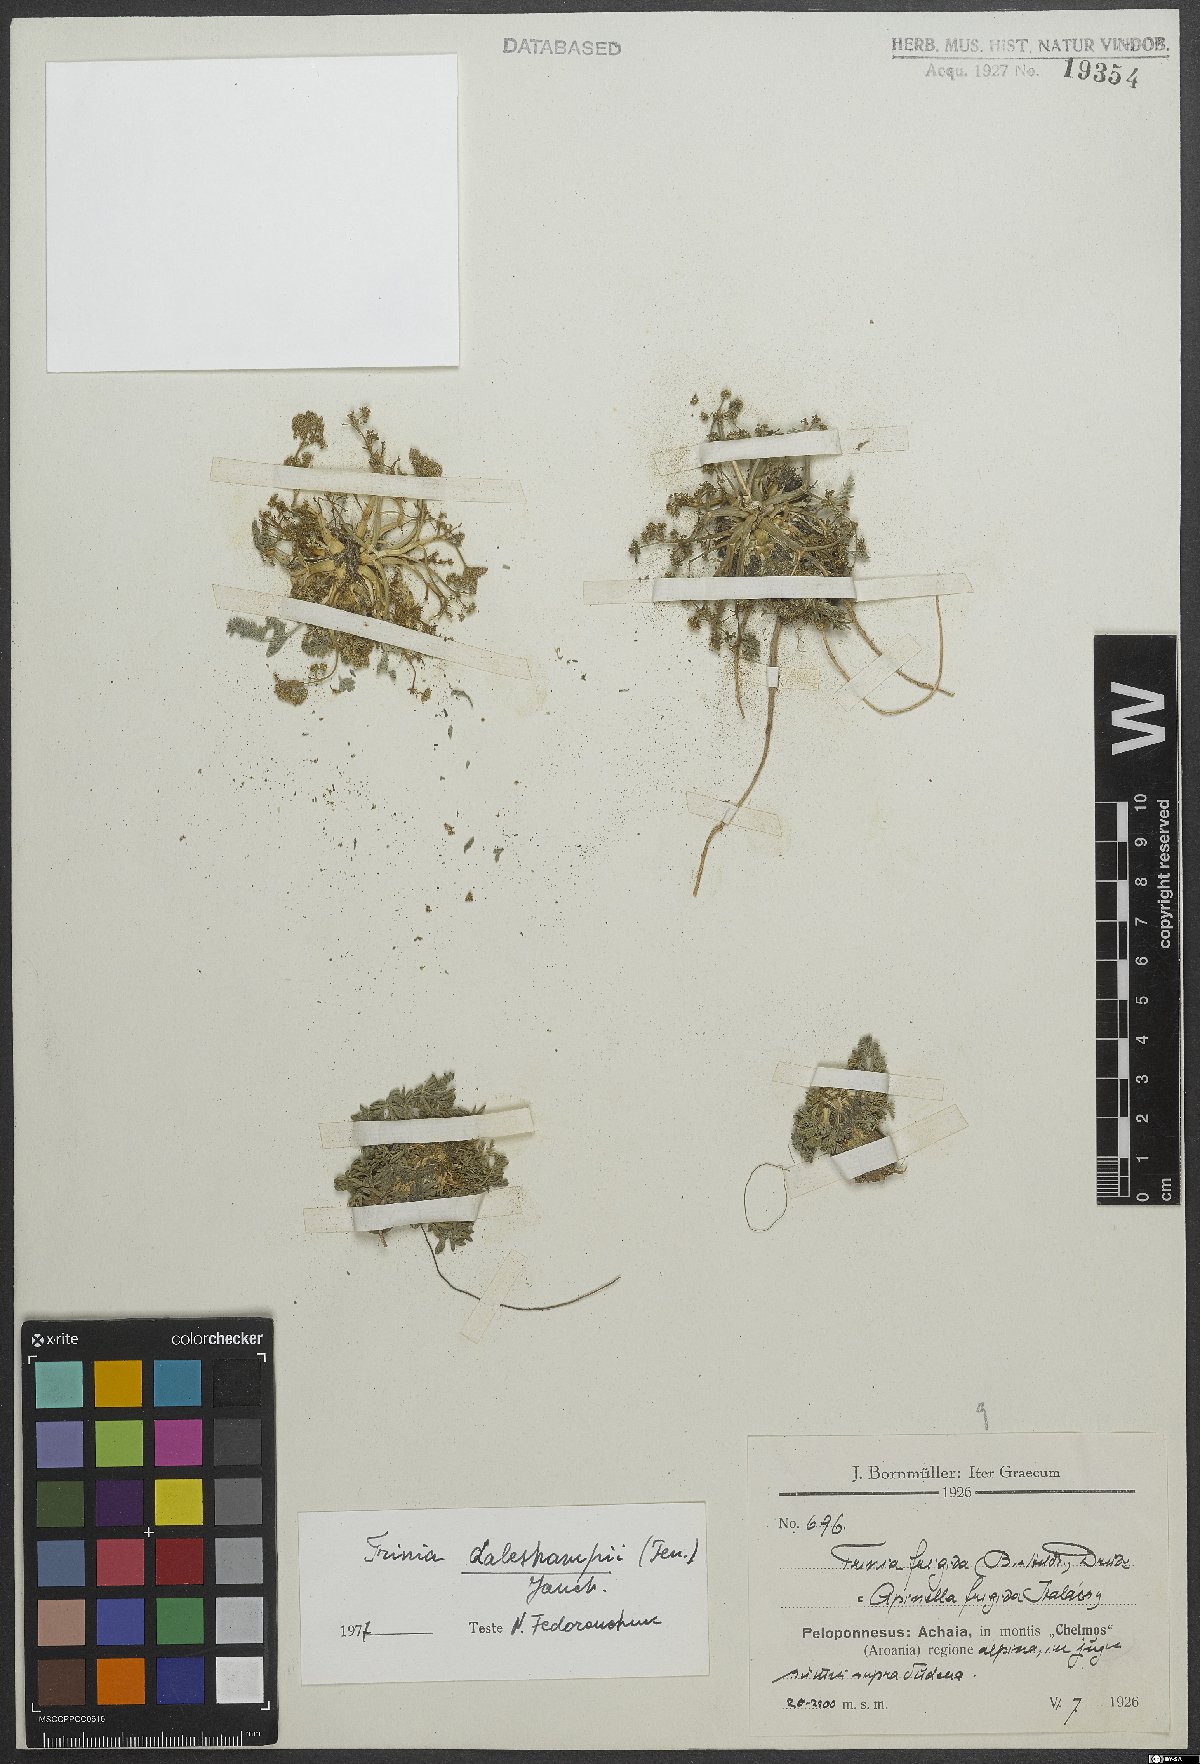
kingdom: Plantae
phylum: Tracheophyta
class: Magnoliopsida
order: Apiales
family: Apiaceae
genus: Trinia
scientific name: Trinia dalechampii
